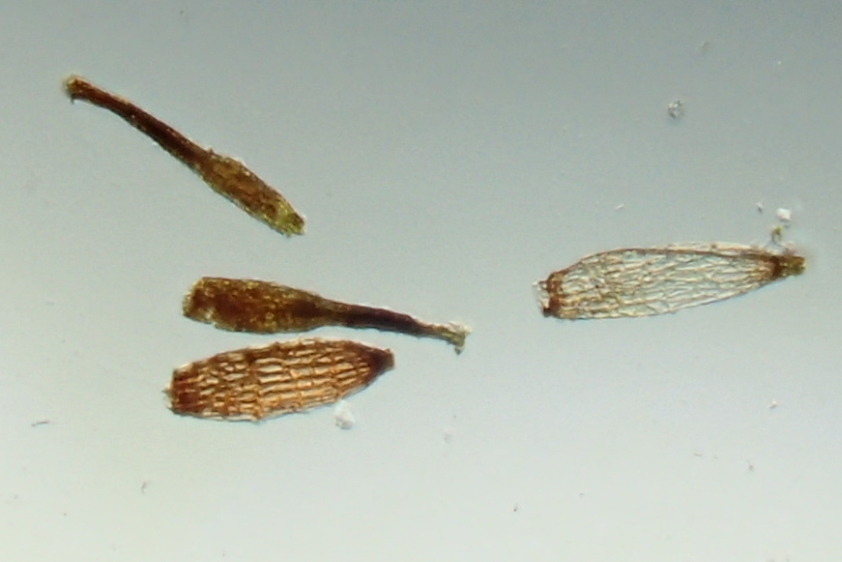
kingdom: Plantae
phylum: Bryophyta
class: Bryopsida
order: Bryales
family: Mniaceae
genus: Pohlia
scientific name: Pohlia nutans
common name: Almindelig nikkemos
